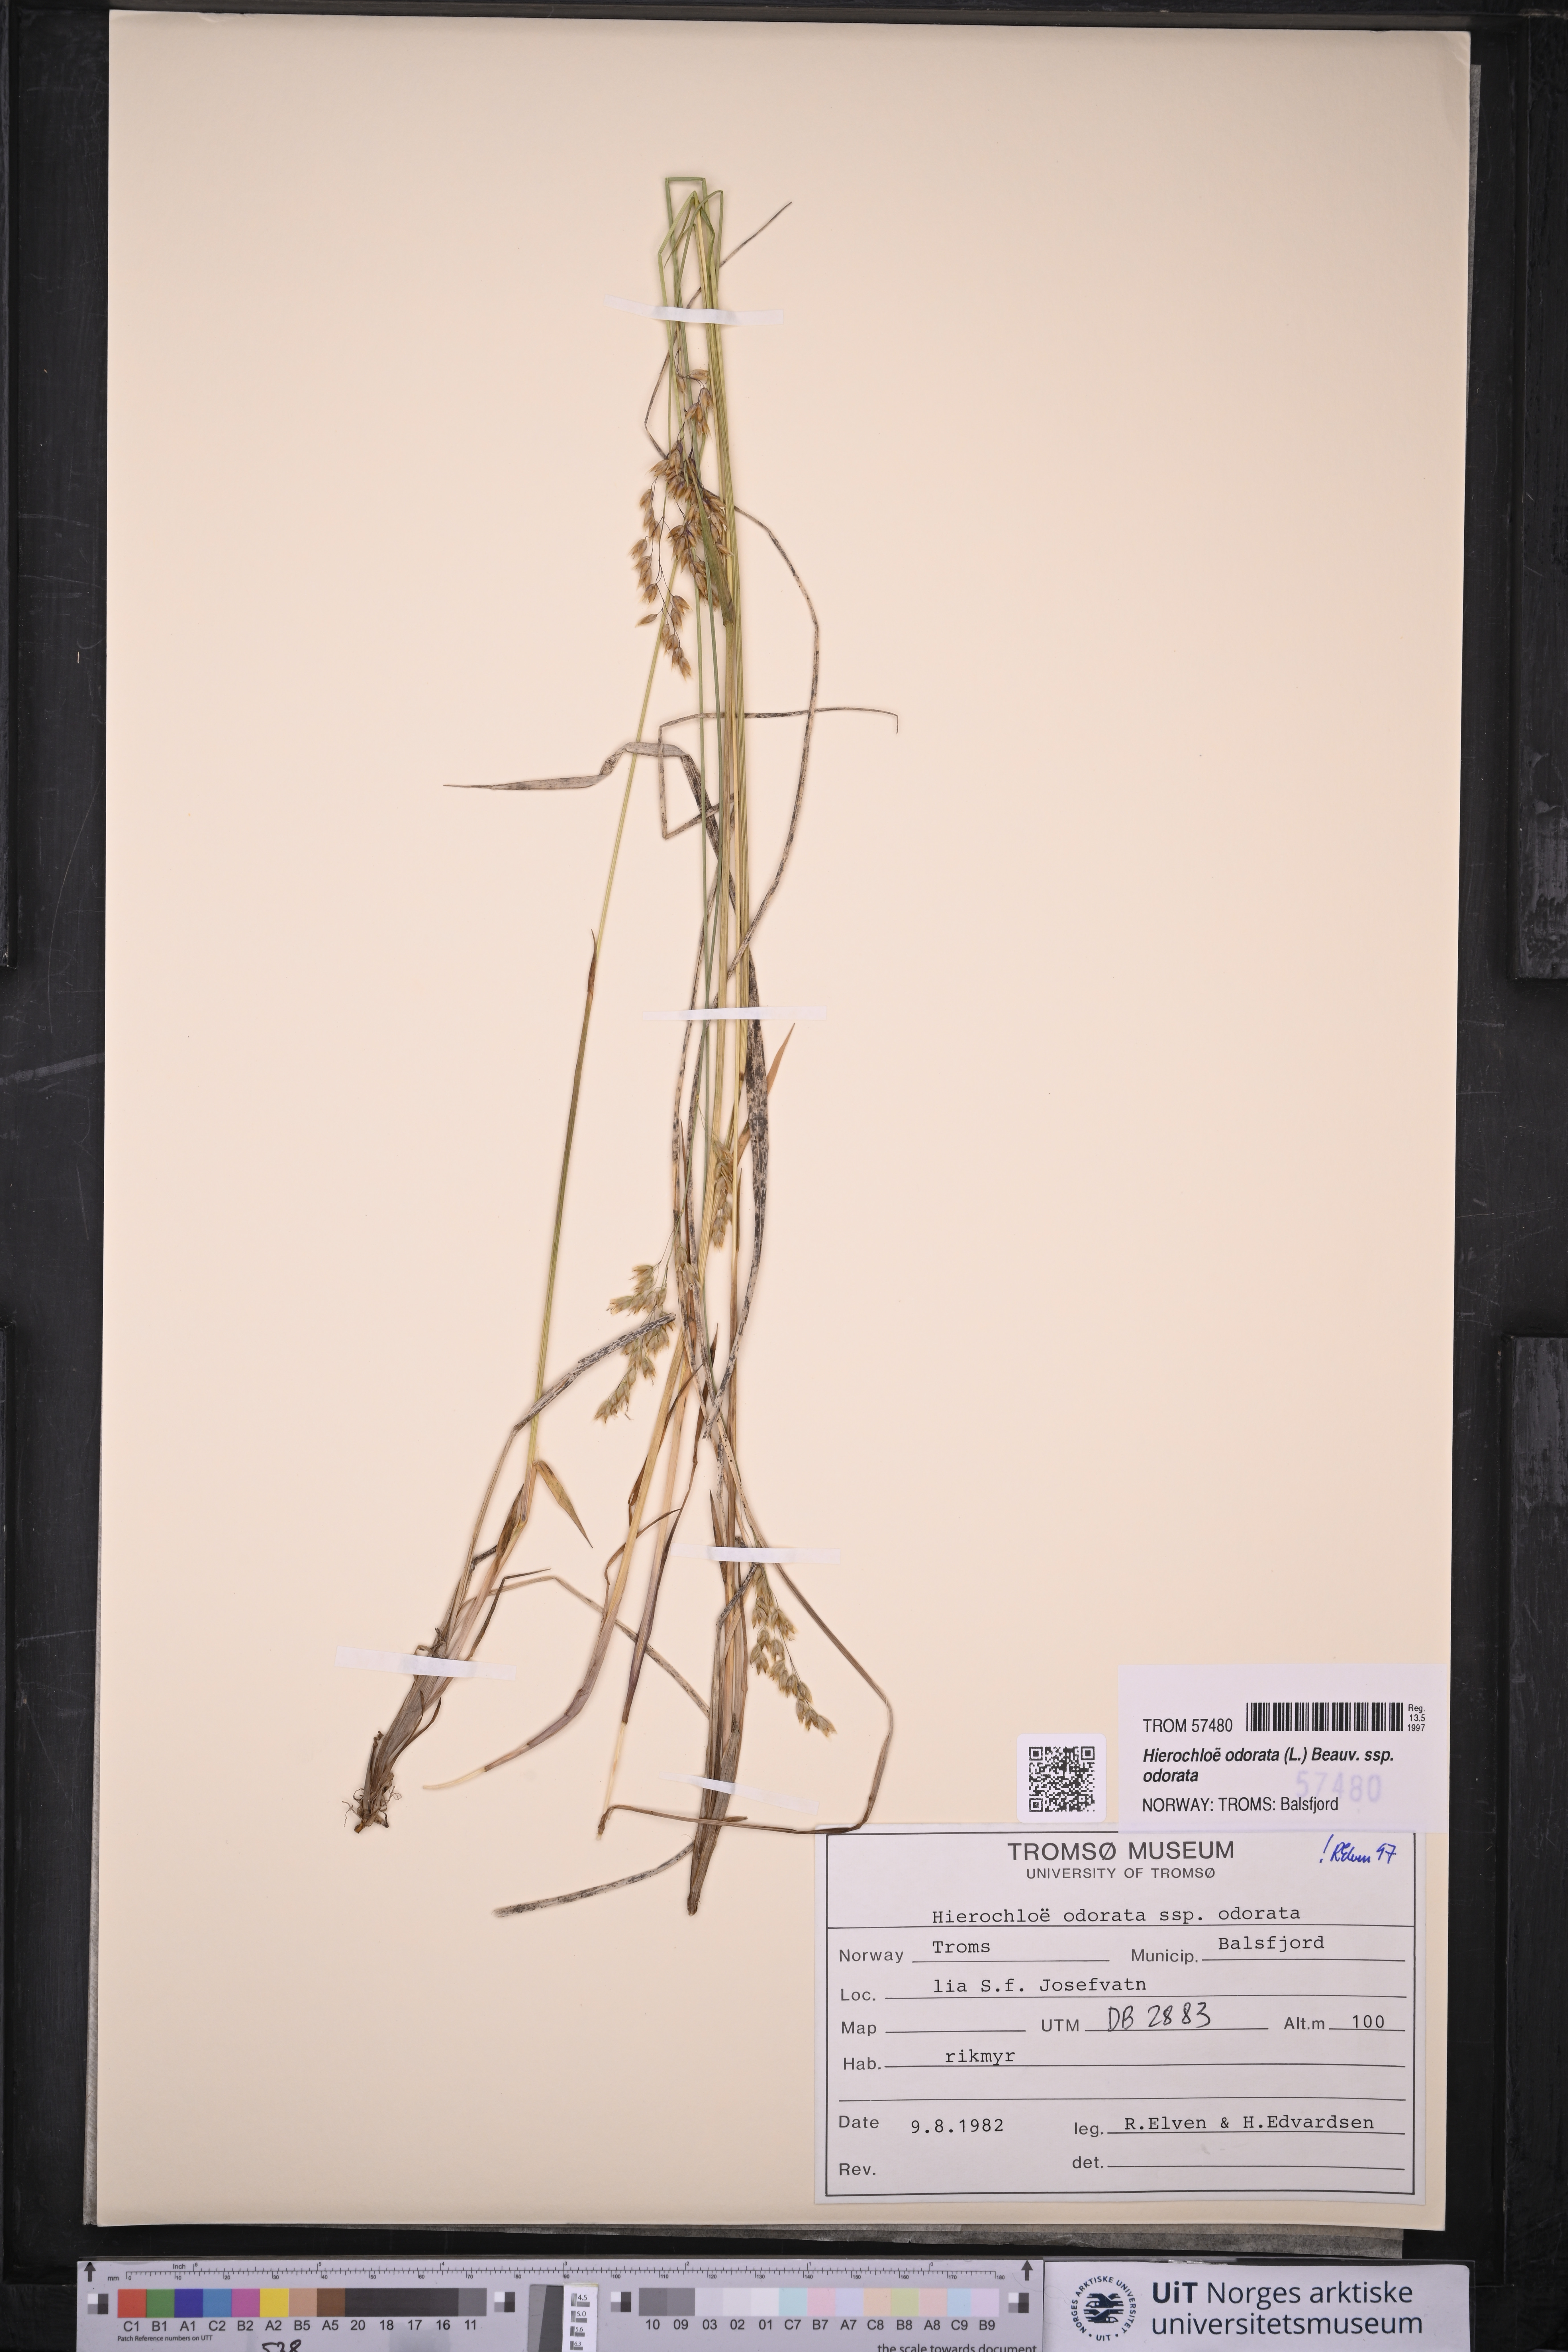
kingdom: Plantae
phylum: Tracheophyta
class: Liliopsida
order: Poales
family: Poaceae
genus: Anthoxanthum
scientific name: Anthoxanthum nitens
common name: Holy grass
